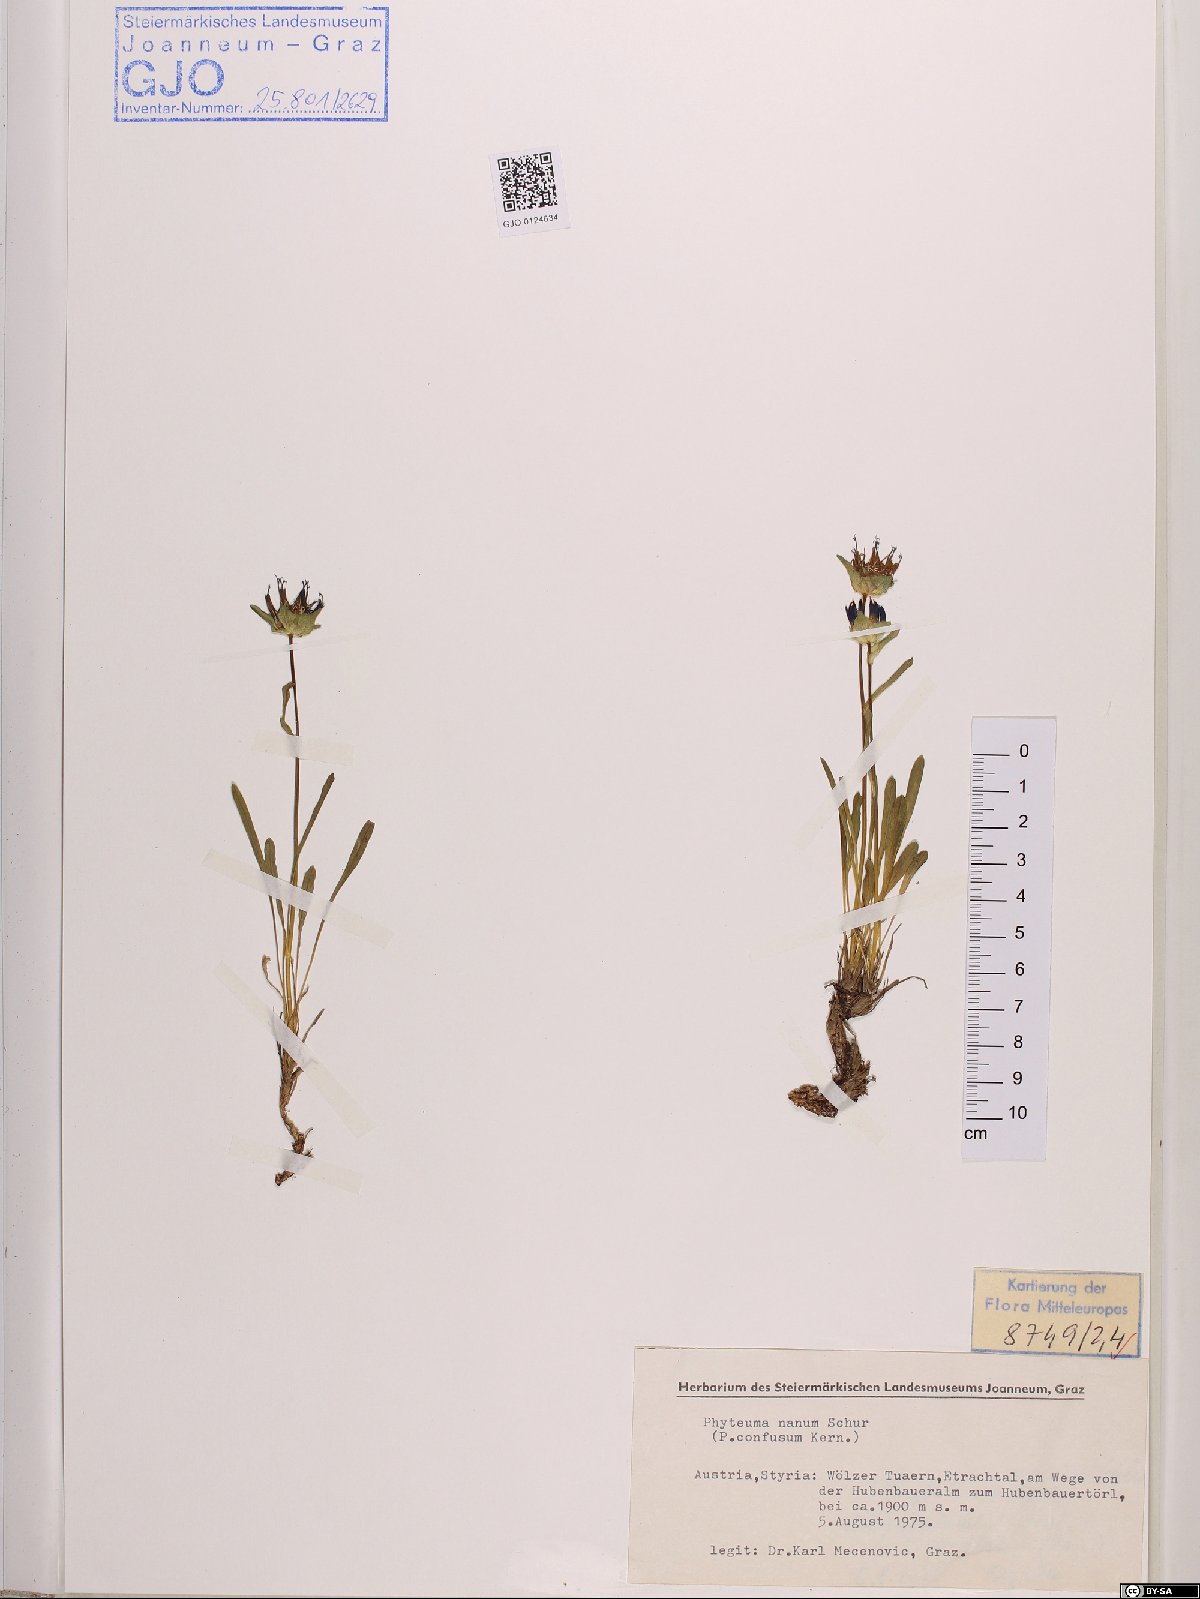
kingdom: Plantae
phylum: Tracheophyta
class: Magnoliopsida
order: Asterales
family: Campanulaceae
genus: Phyteuma
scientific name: Phyteuma globulariifolium
